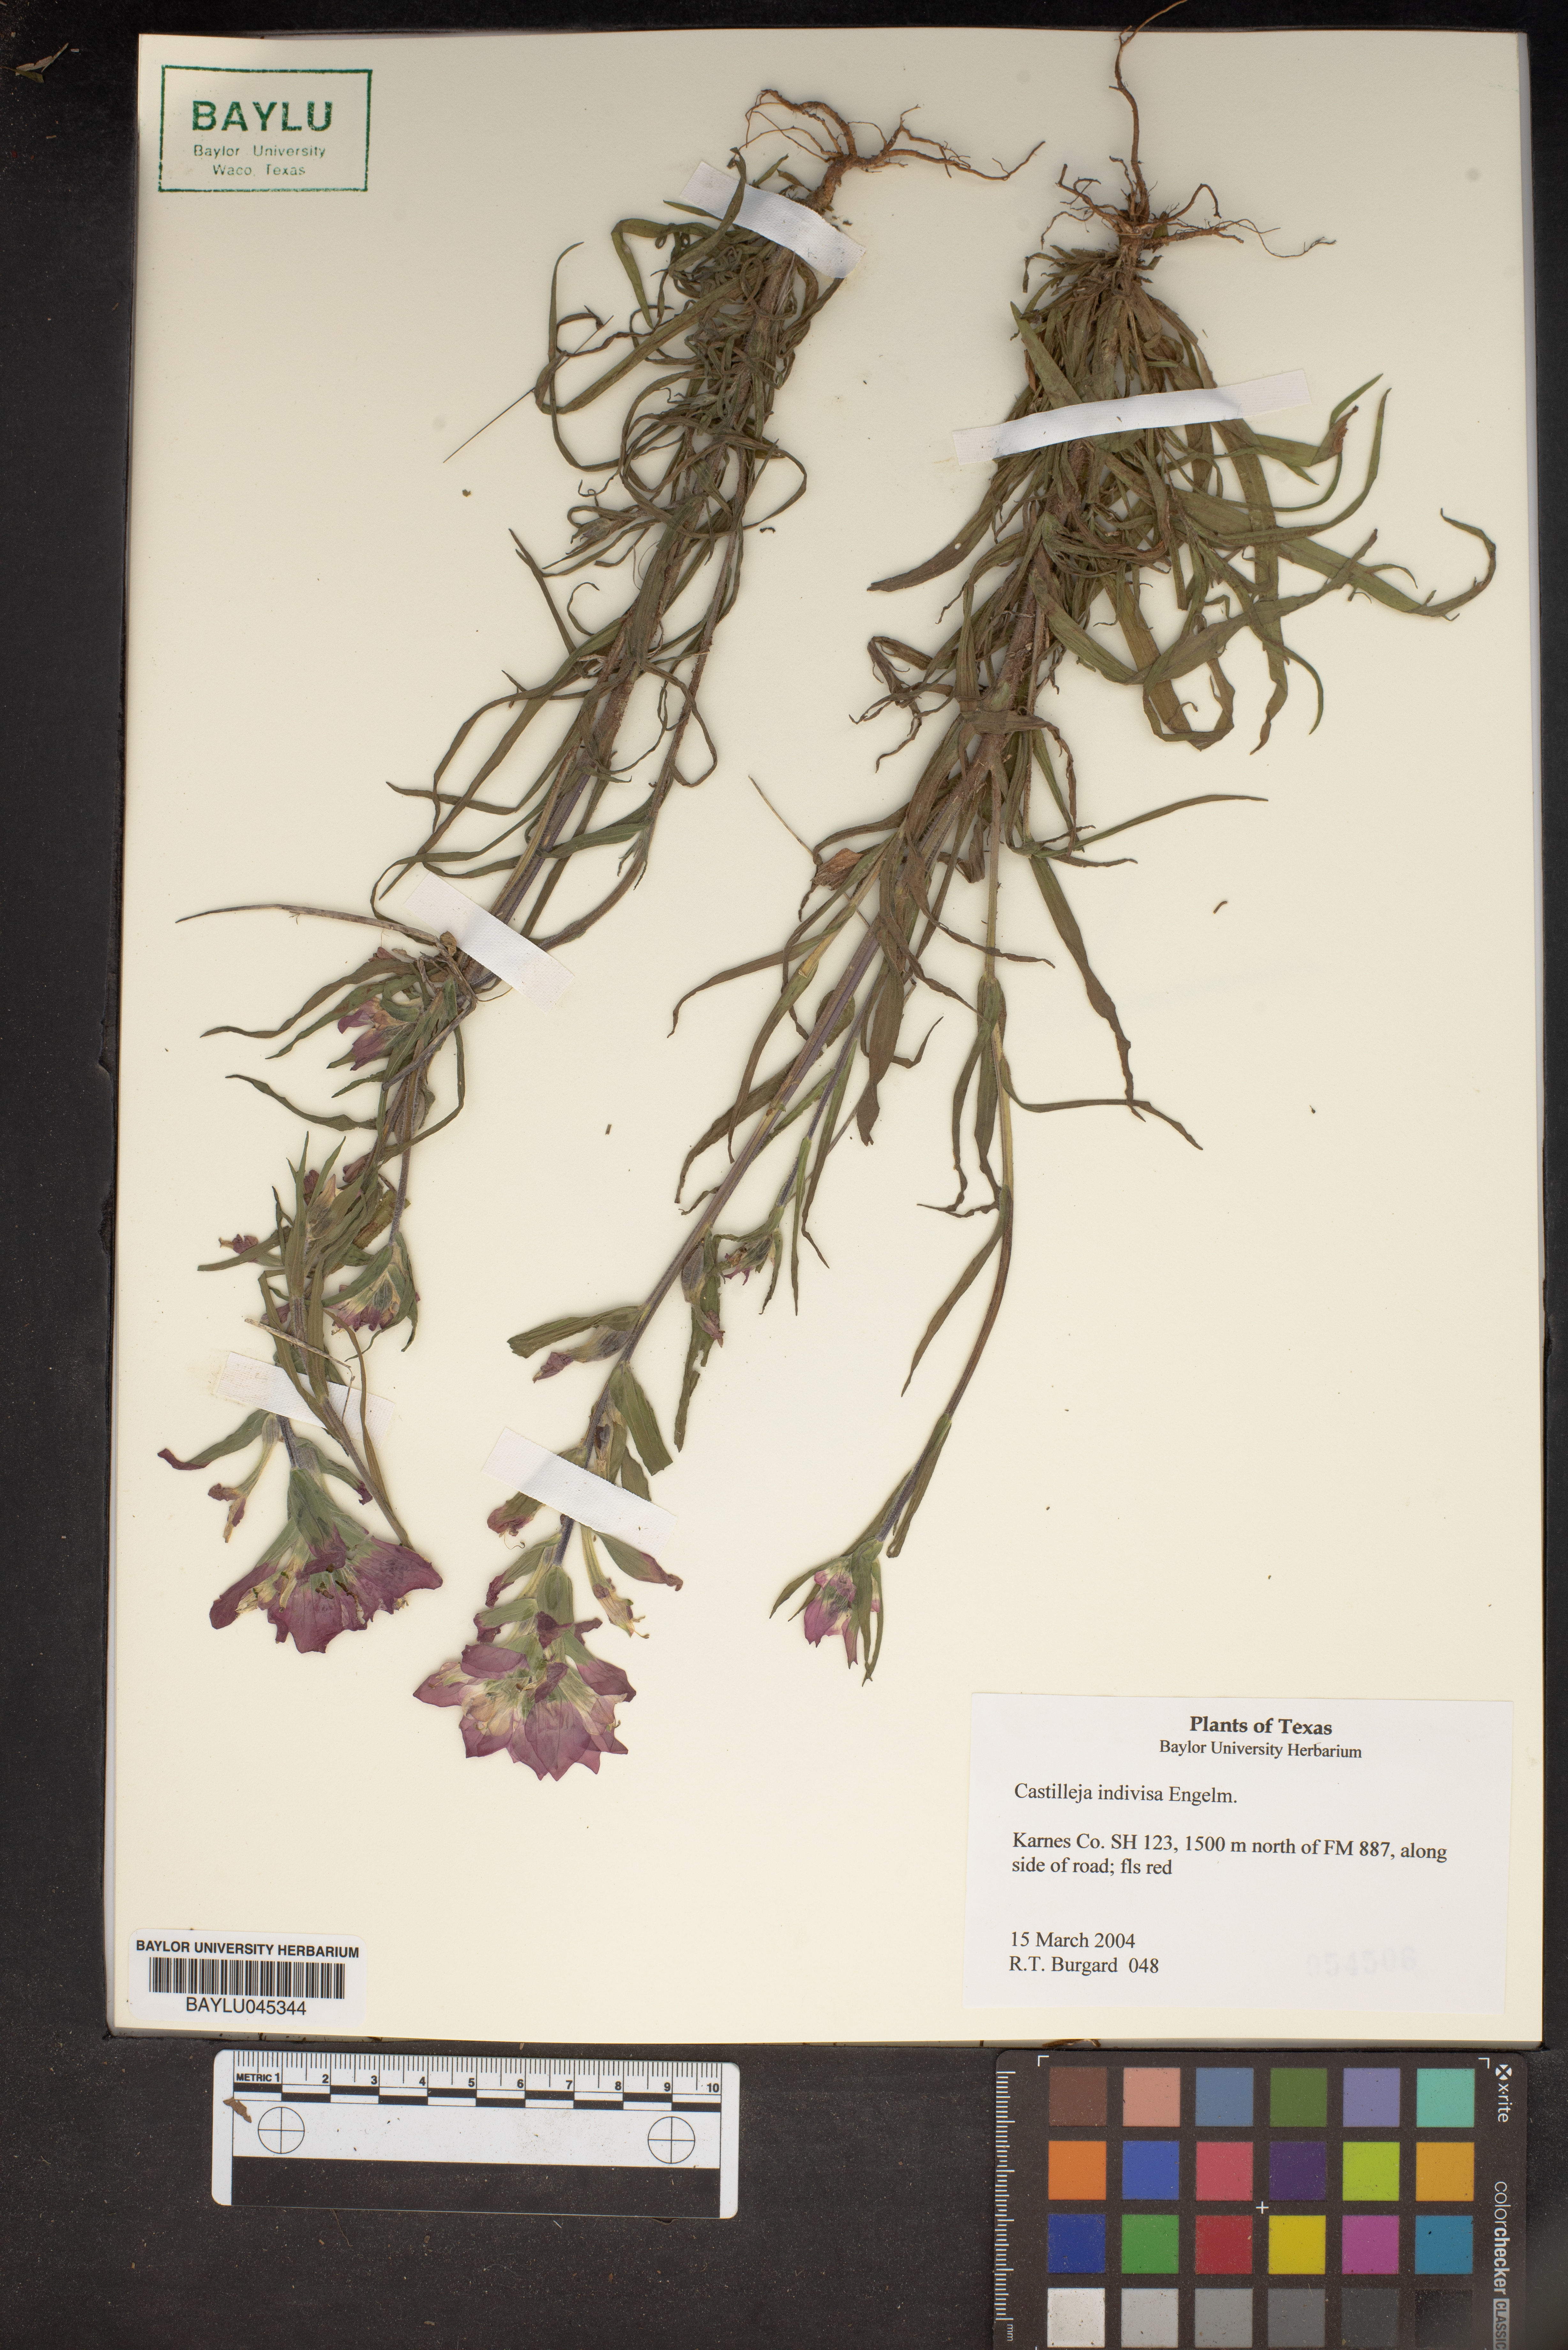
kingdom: Plantae
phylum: Tracheophyta
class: Magnoliopsida
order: Lamiales
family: Orobanchaceae
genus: Castilleja
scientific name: Castilleja indivisa
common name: Texas paintbrush
